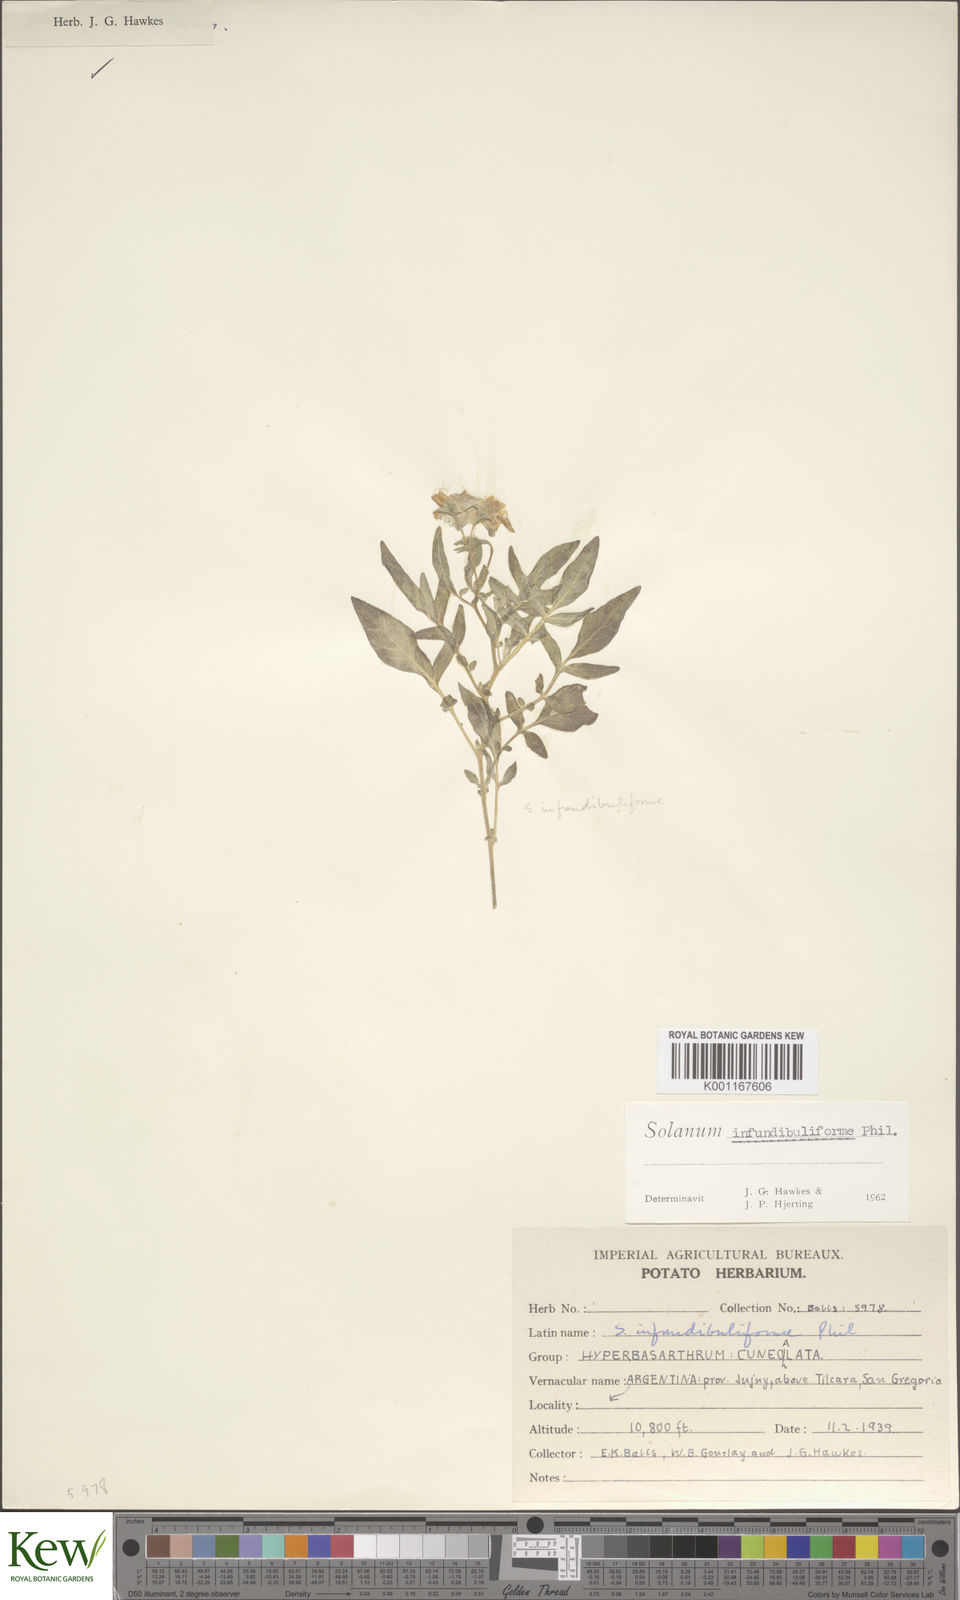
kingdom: Plantae
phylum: Tracheophyta
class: Magnoliopsida
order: Solanales
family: Solanaceae
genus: Solanum
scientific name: Solanum infundibuliforme
